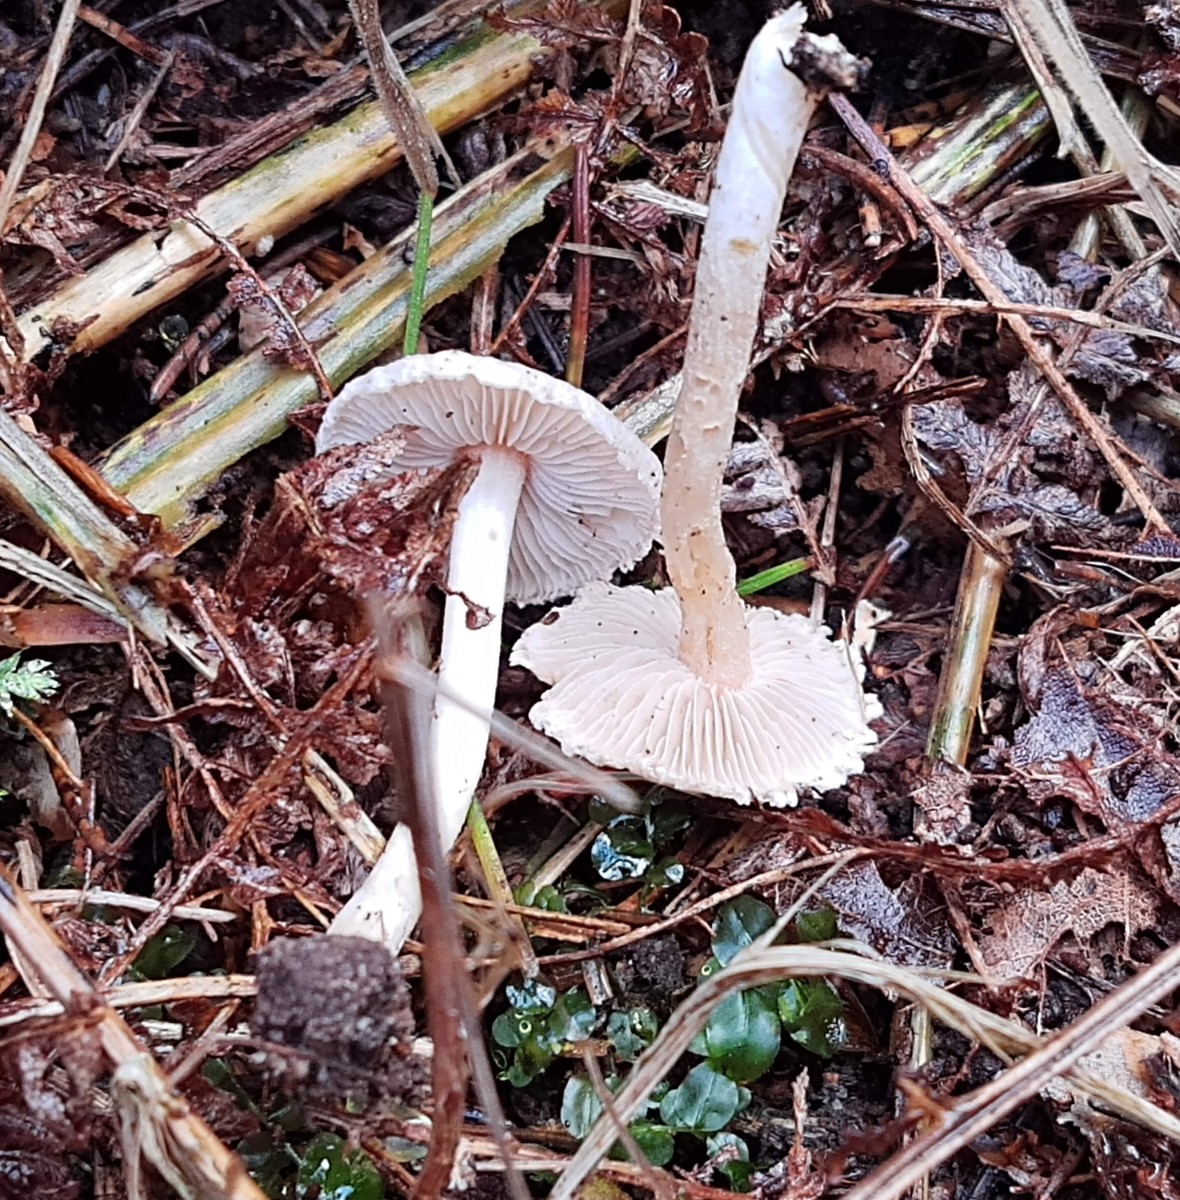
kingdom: Fungi
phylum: Basidiomycota
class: Agaricomycetes
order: Agaricales
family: Inocybaceae
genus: Inocybe
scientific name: Inocybe
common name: trævlhat
